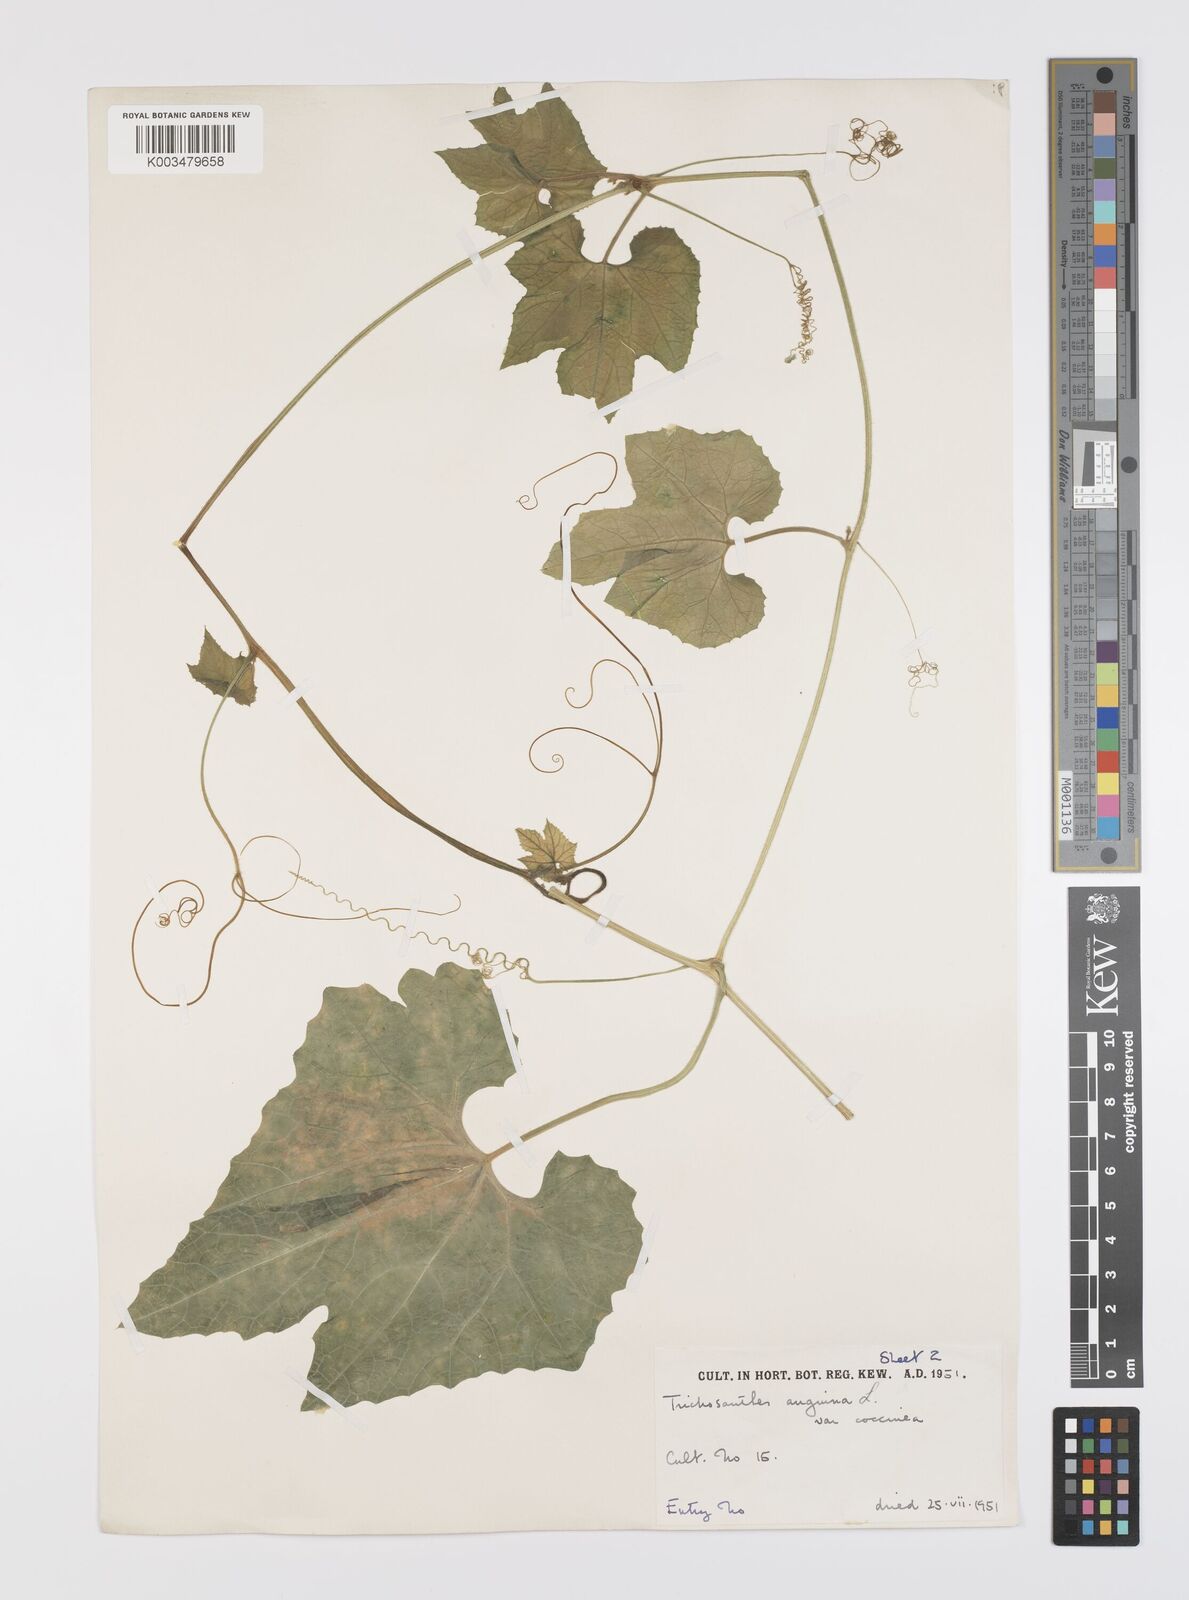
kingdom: Plantae
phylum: Tracheophyta
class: Magnoliopsida
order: Cucurbitales
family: Cucurbitaceae
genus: Trichosanthes
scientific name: Trichosanthes cucumerina
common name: Snakegourd
